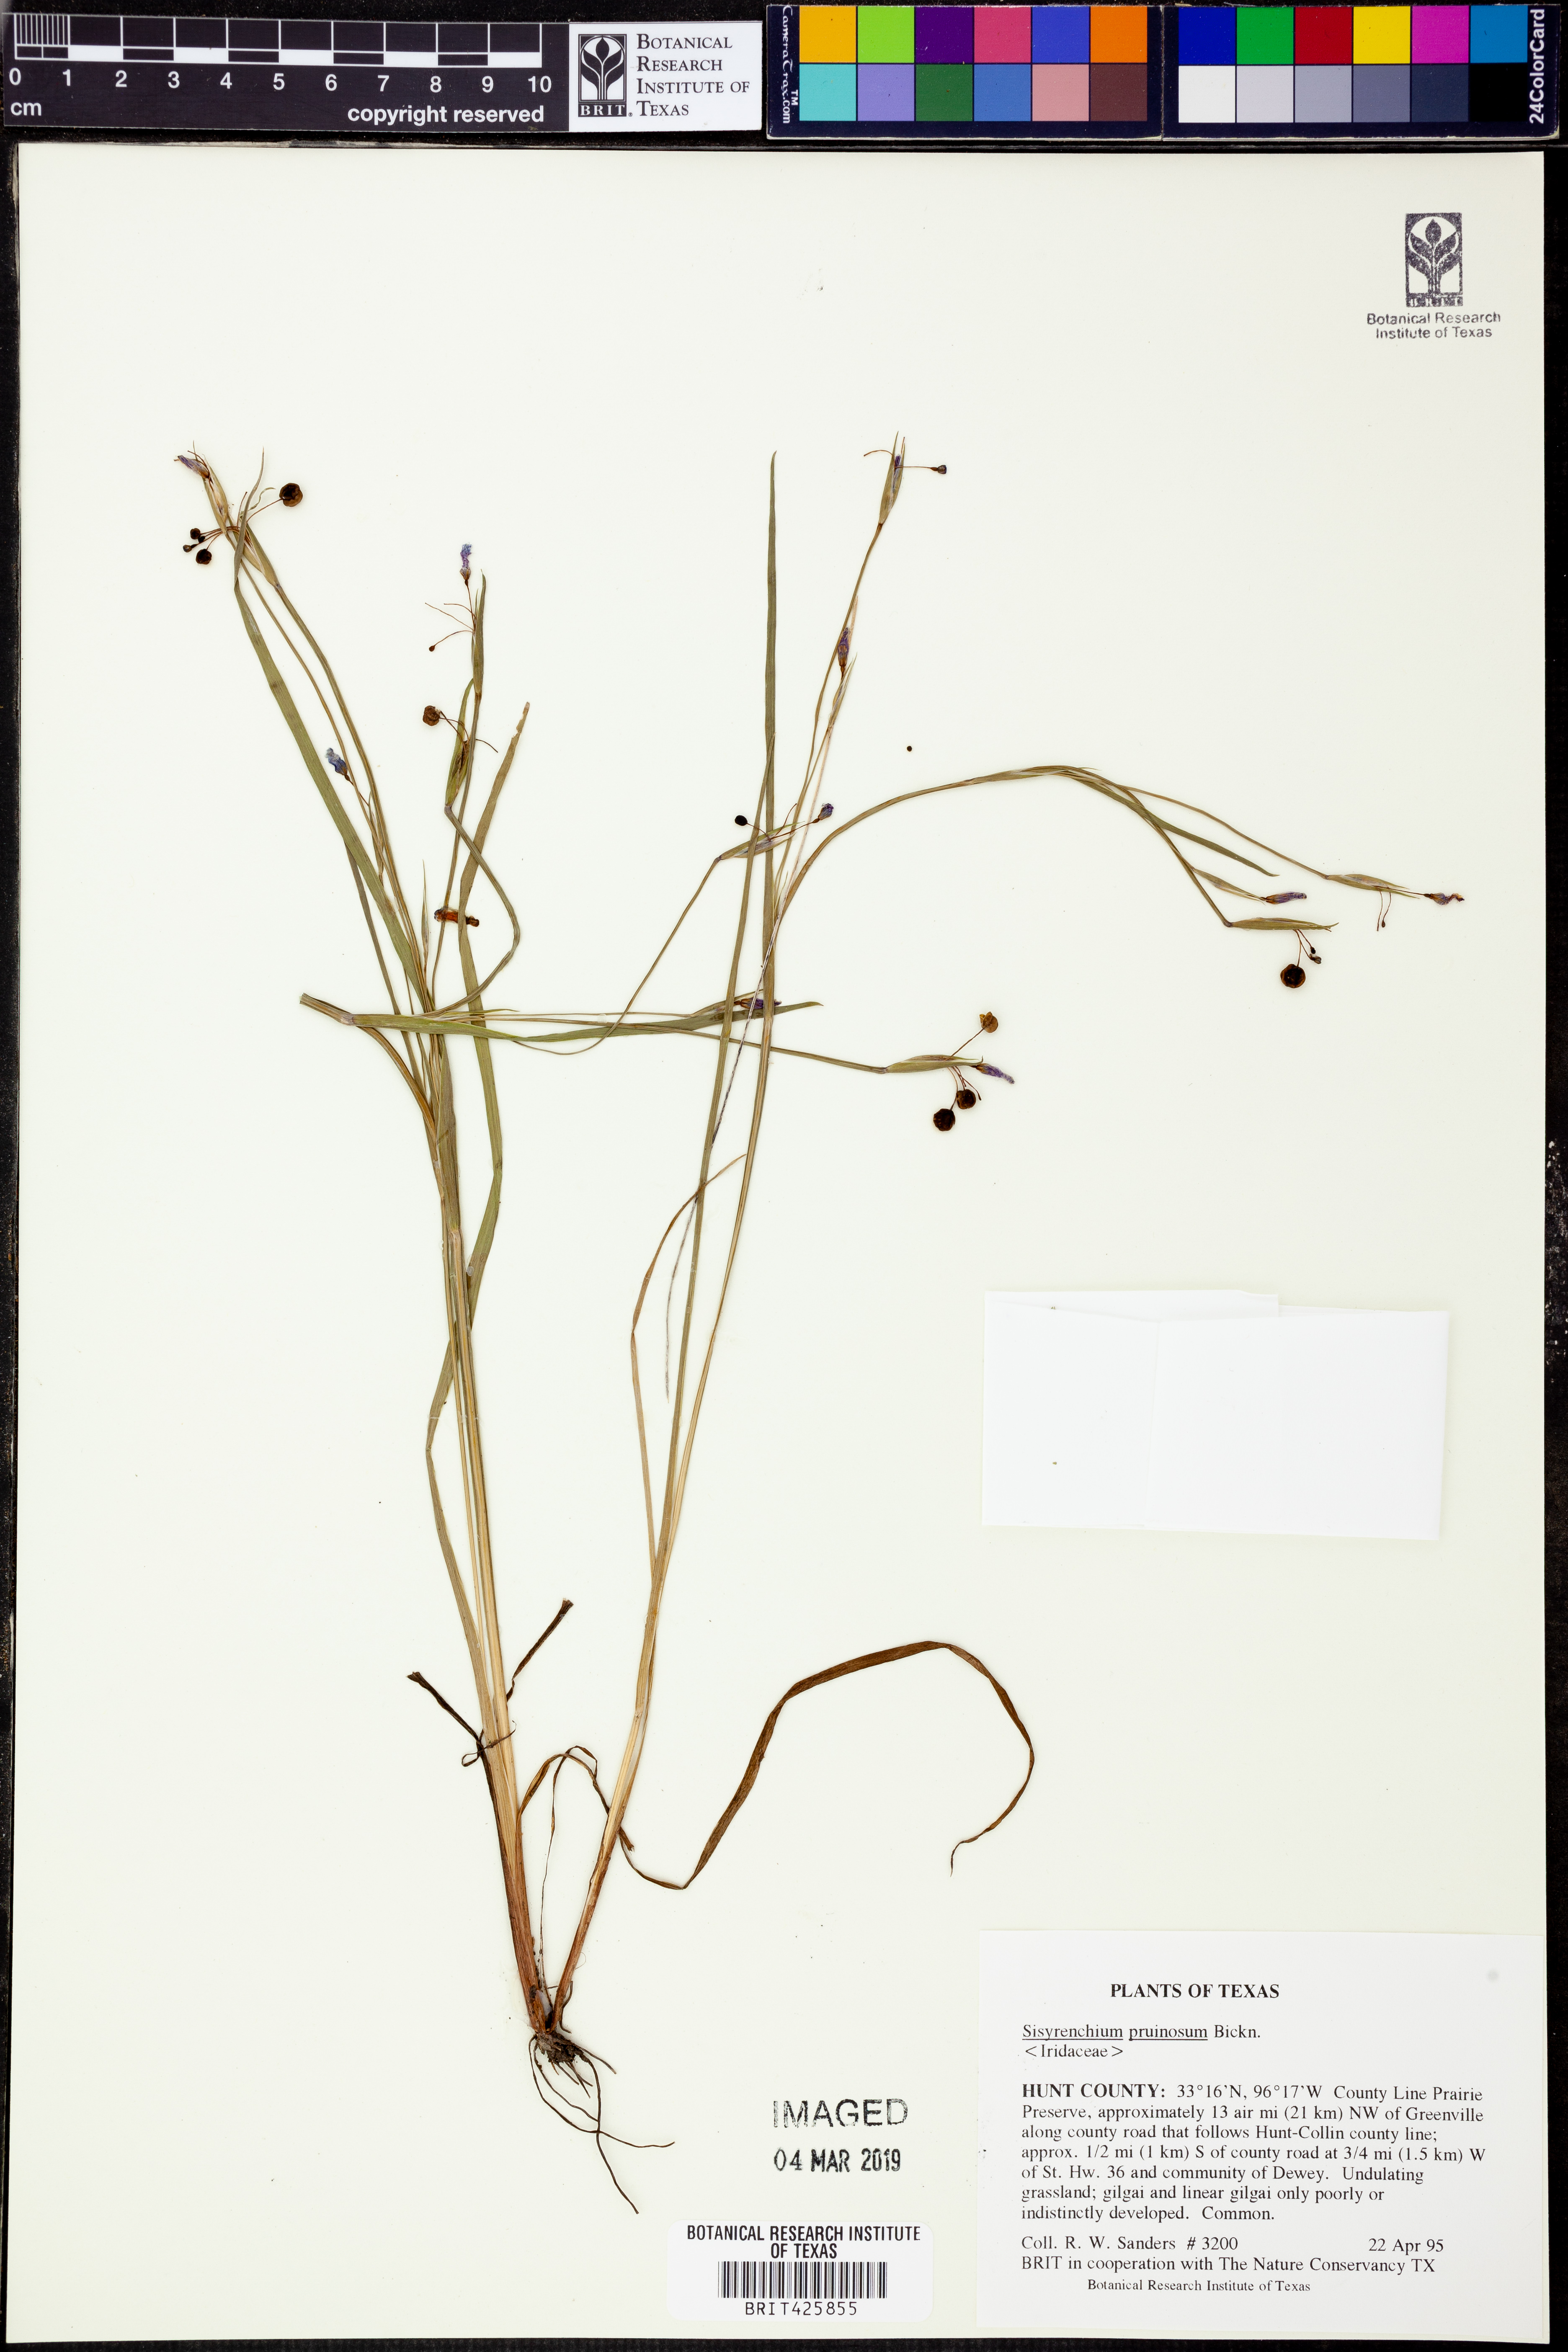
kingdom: Plantae
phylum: Tracheophyta
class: Liliopsida
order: Asparagales
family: Iridaceae
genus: Sisyrinchium
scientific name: Sisyrinchium pruinosum
